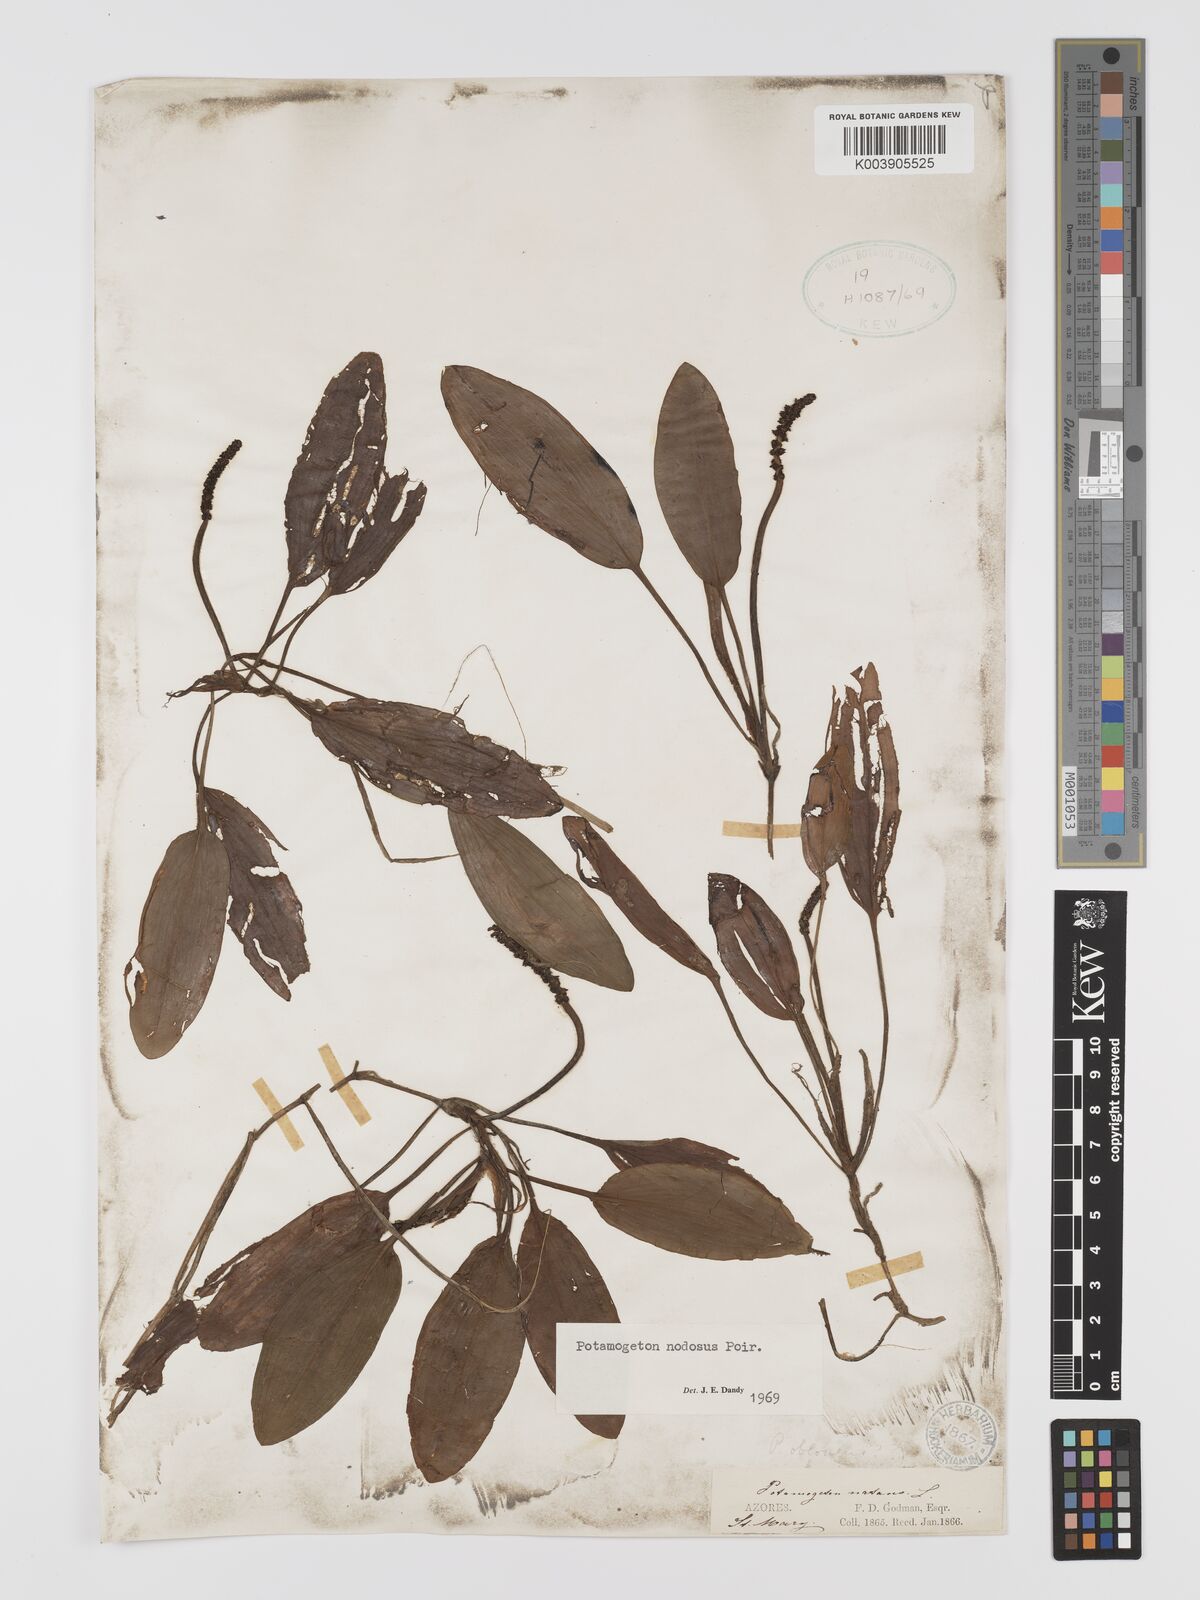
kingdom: Plantae
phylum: Tracheophyta
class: Liliopsida
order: Alismatales
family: Potamogetonaceae
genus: Potamogeton
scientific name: Potamogeton nodosus
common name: Loddon pondweed
